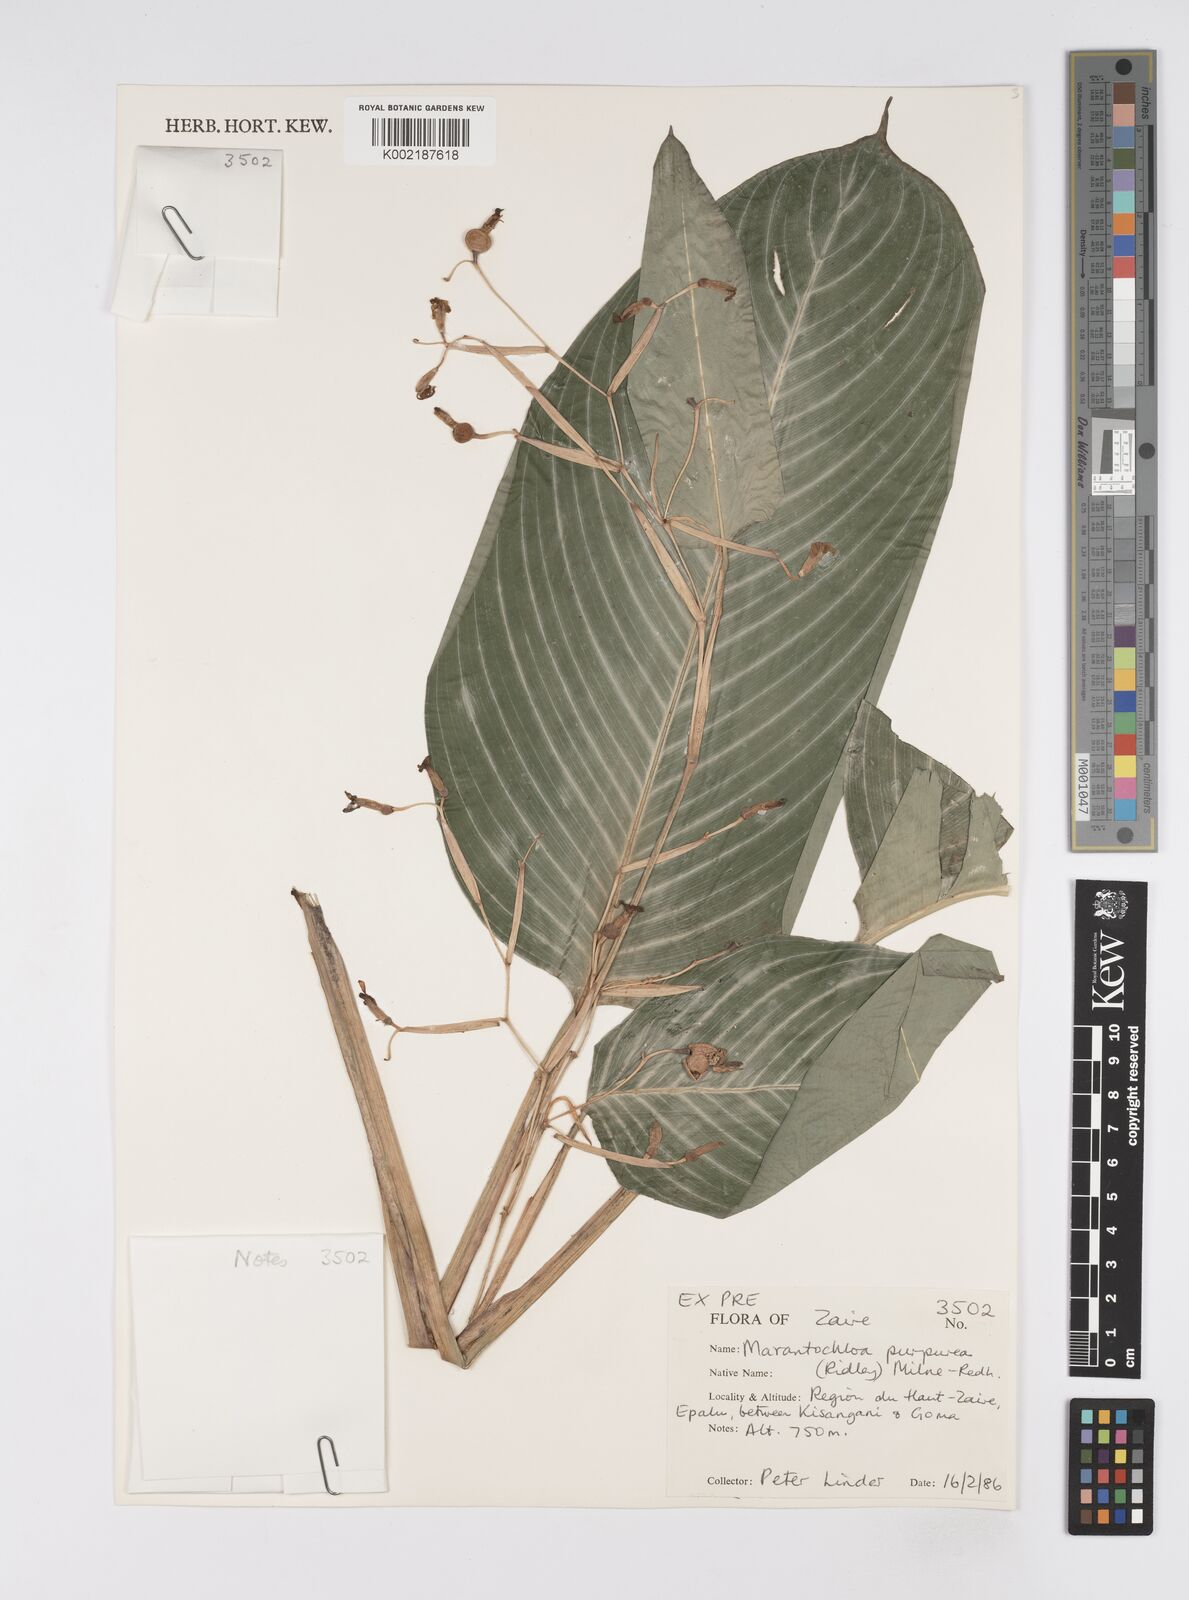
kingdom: Plantae
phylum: Tracheophyta
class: Liliopsida
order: Zingiberales
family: Marantaceae
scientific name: Marantaceae
